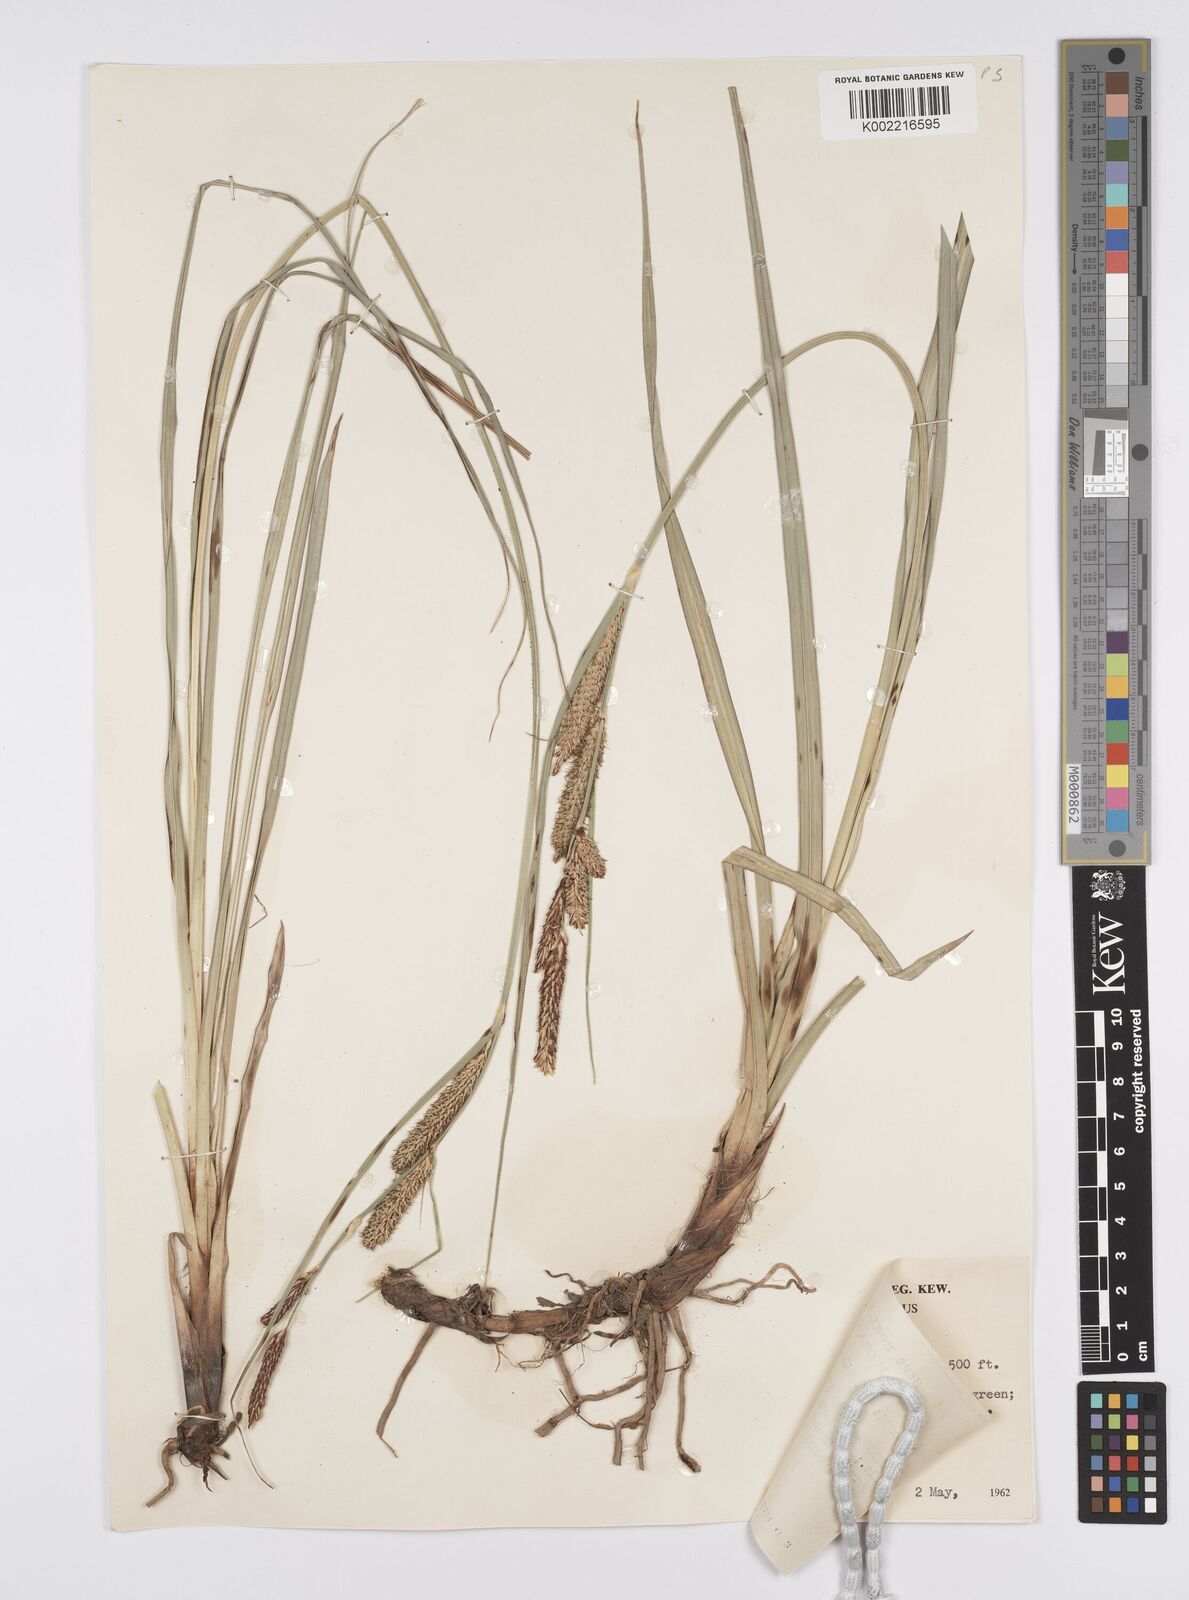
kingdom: Plantae
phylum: Tracheophyta
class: Liliopsida
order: Poales
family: Cyperaceae
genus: Carex
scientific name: Carex hispida
